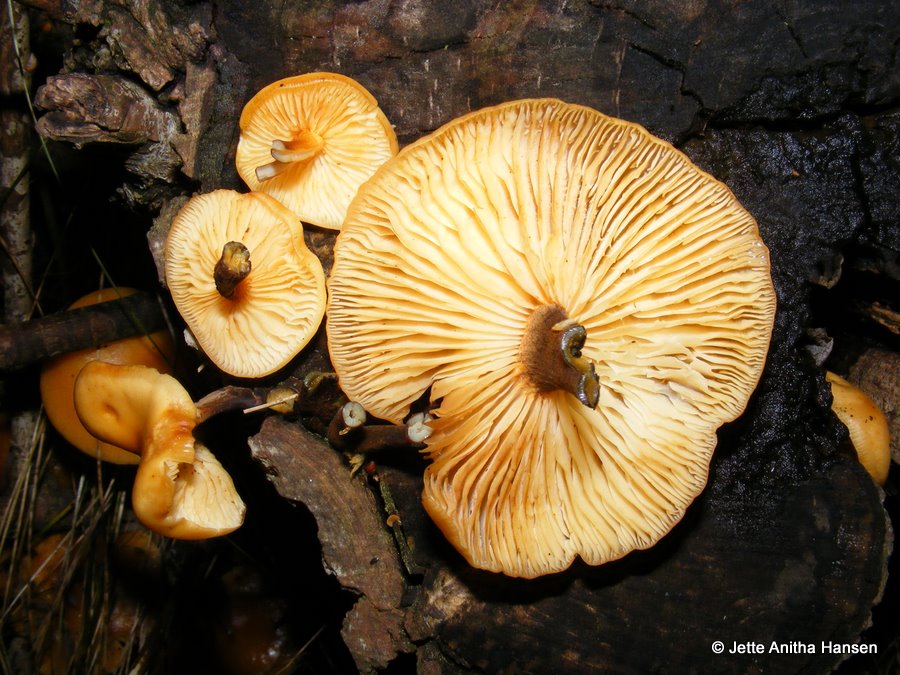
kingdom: Fungi
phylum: Basidiomycota
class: Agaricomycetes
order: Agaricales
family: Physalacriaceae
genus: Flammulina
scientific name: Flammulina elastica
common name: pile-fløjlsfod
